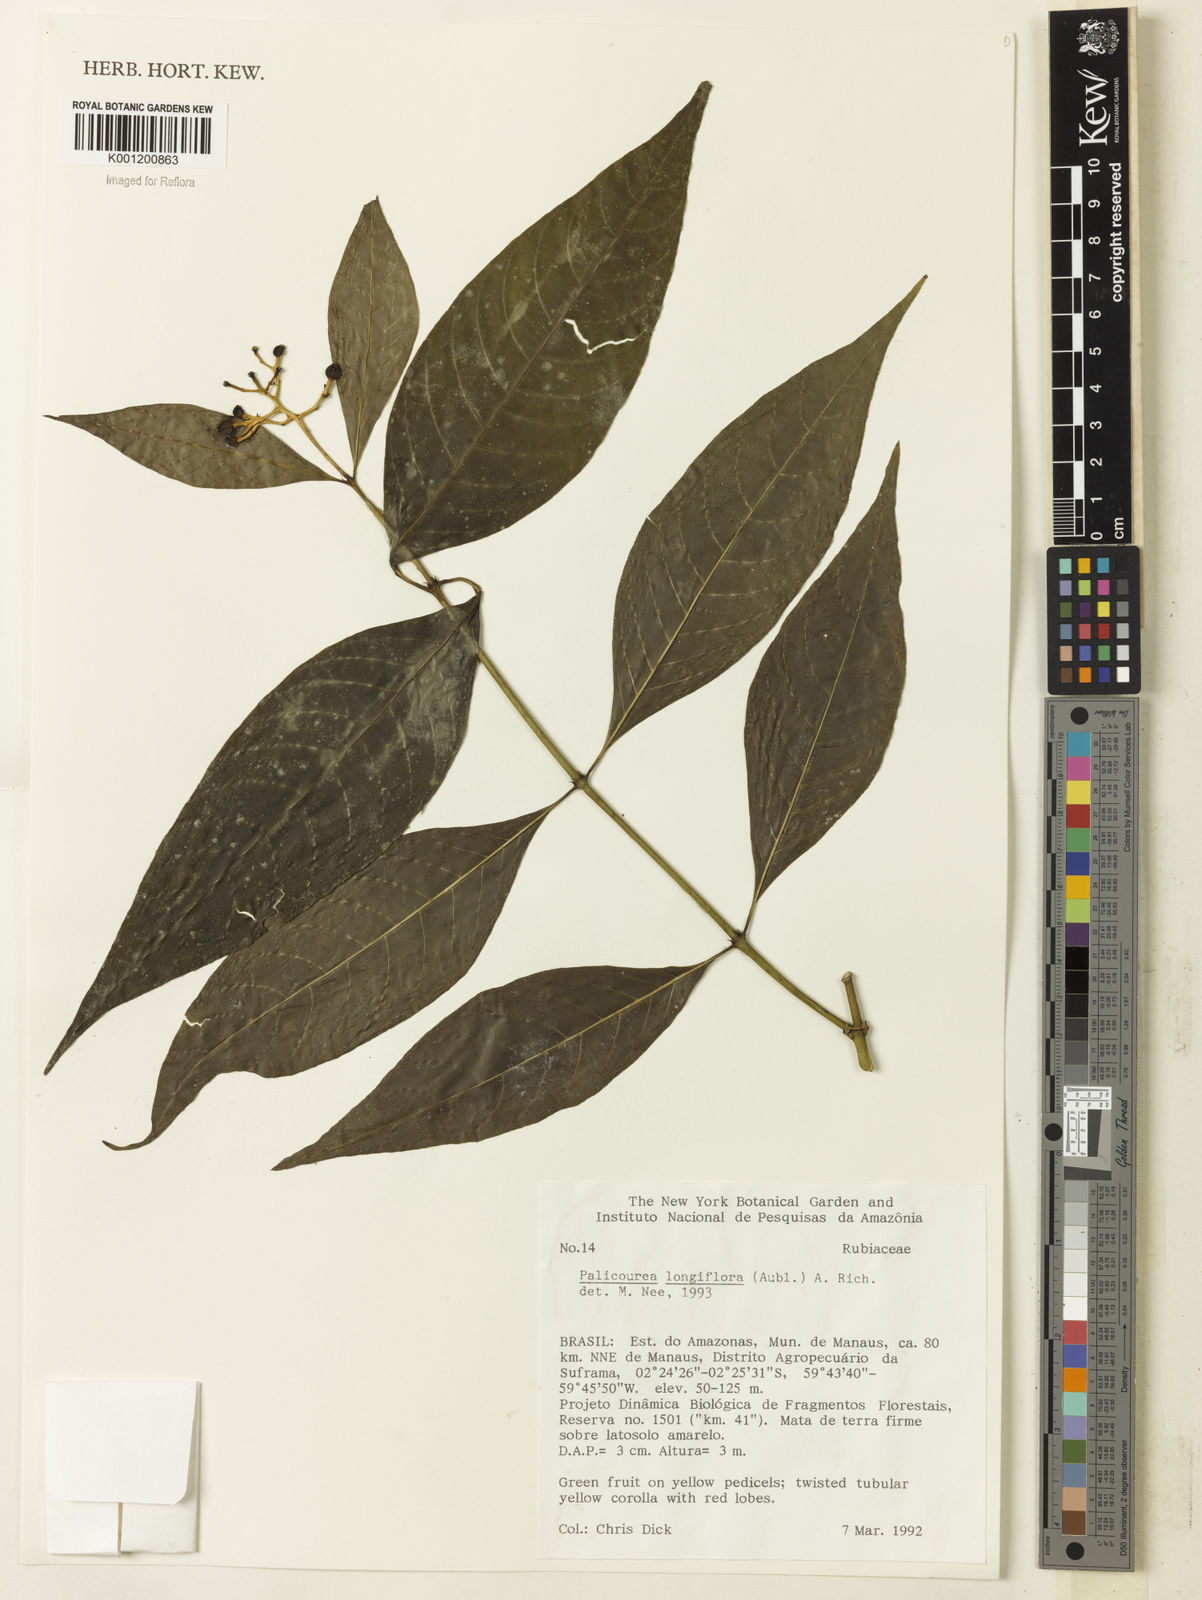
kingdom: Plantae
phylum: Tracheophyta
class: Magnoliopsida
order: Gentianales
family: Rubiaceae
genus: Palicourea
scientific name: Palicourea longiflora
